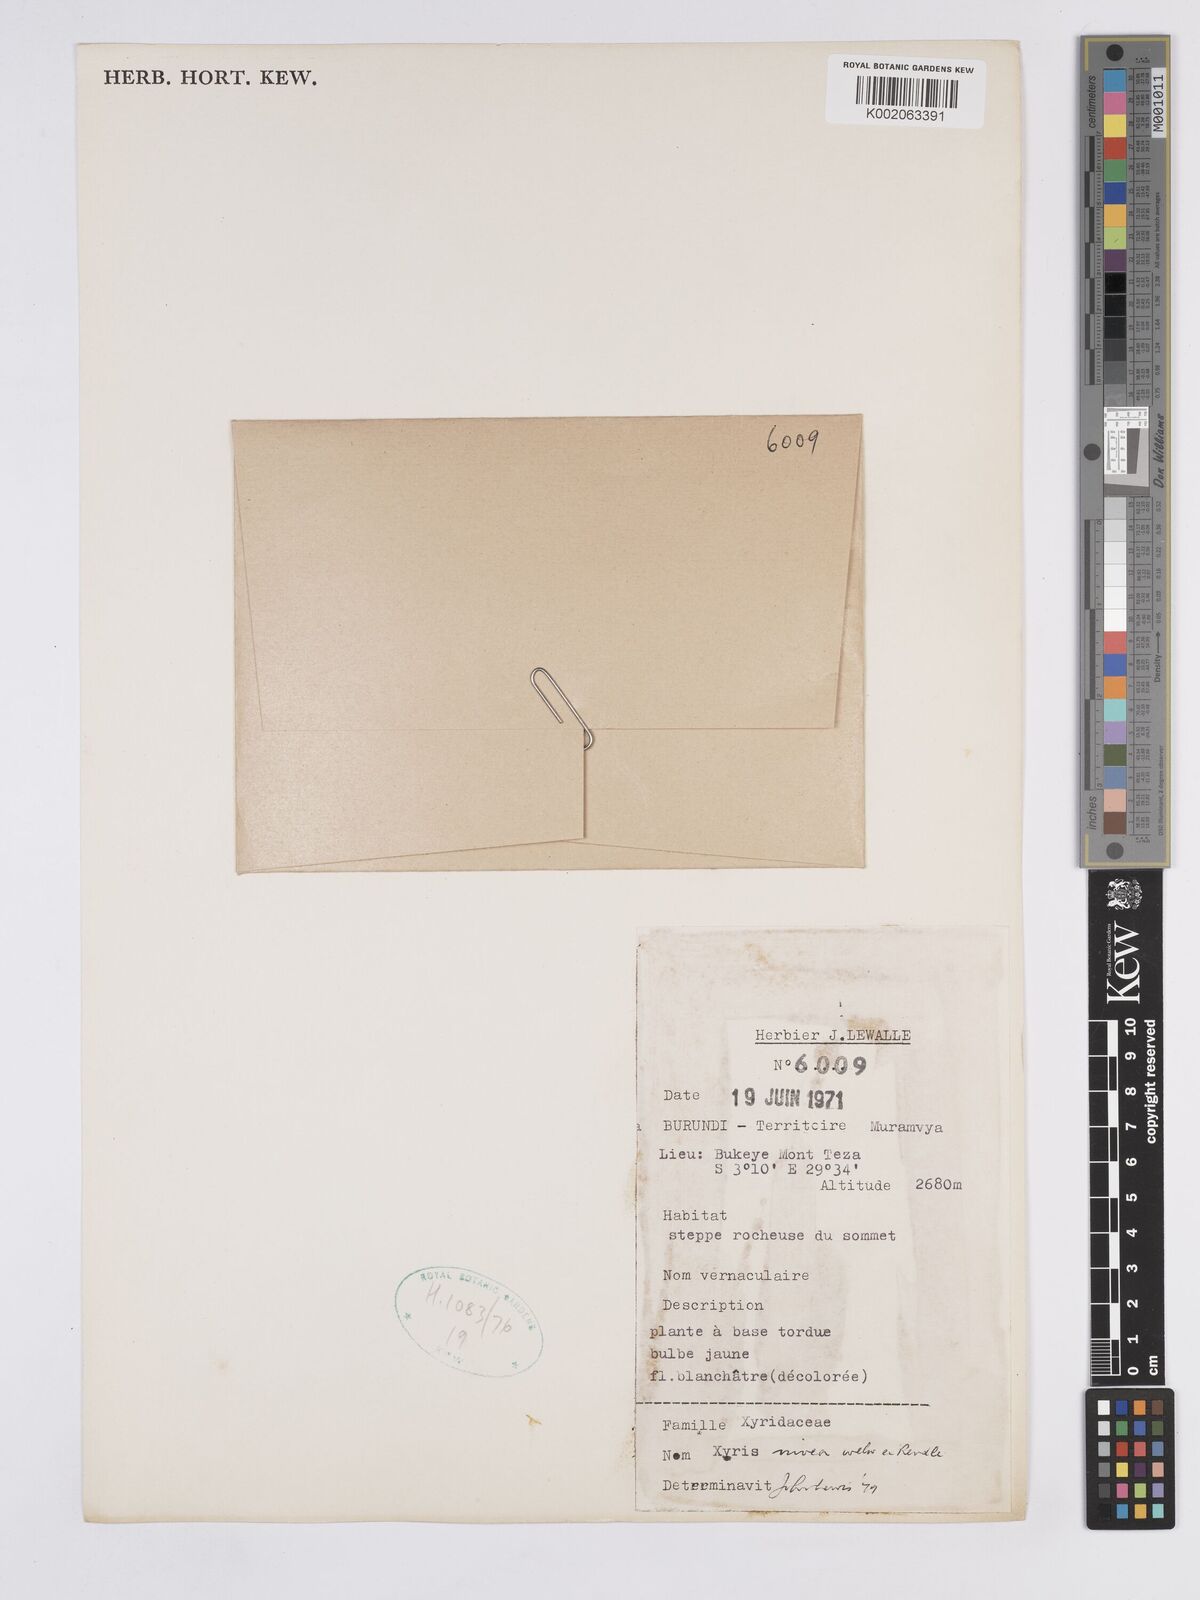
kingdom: Plantae
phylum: Tracheophyta
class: Liliopsida
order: Poales
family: Xyridaceae
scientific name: Xyridaceae
